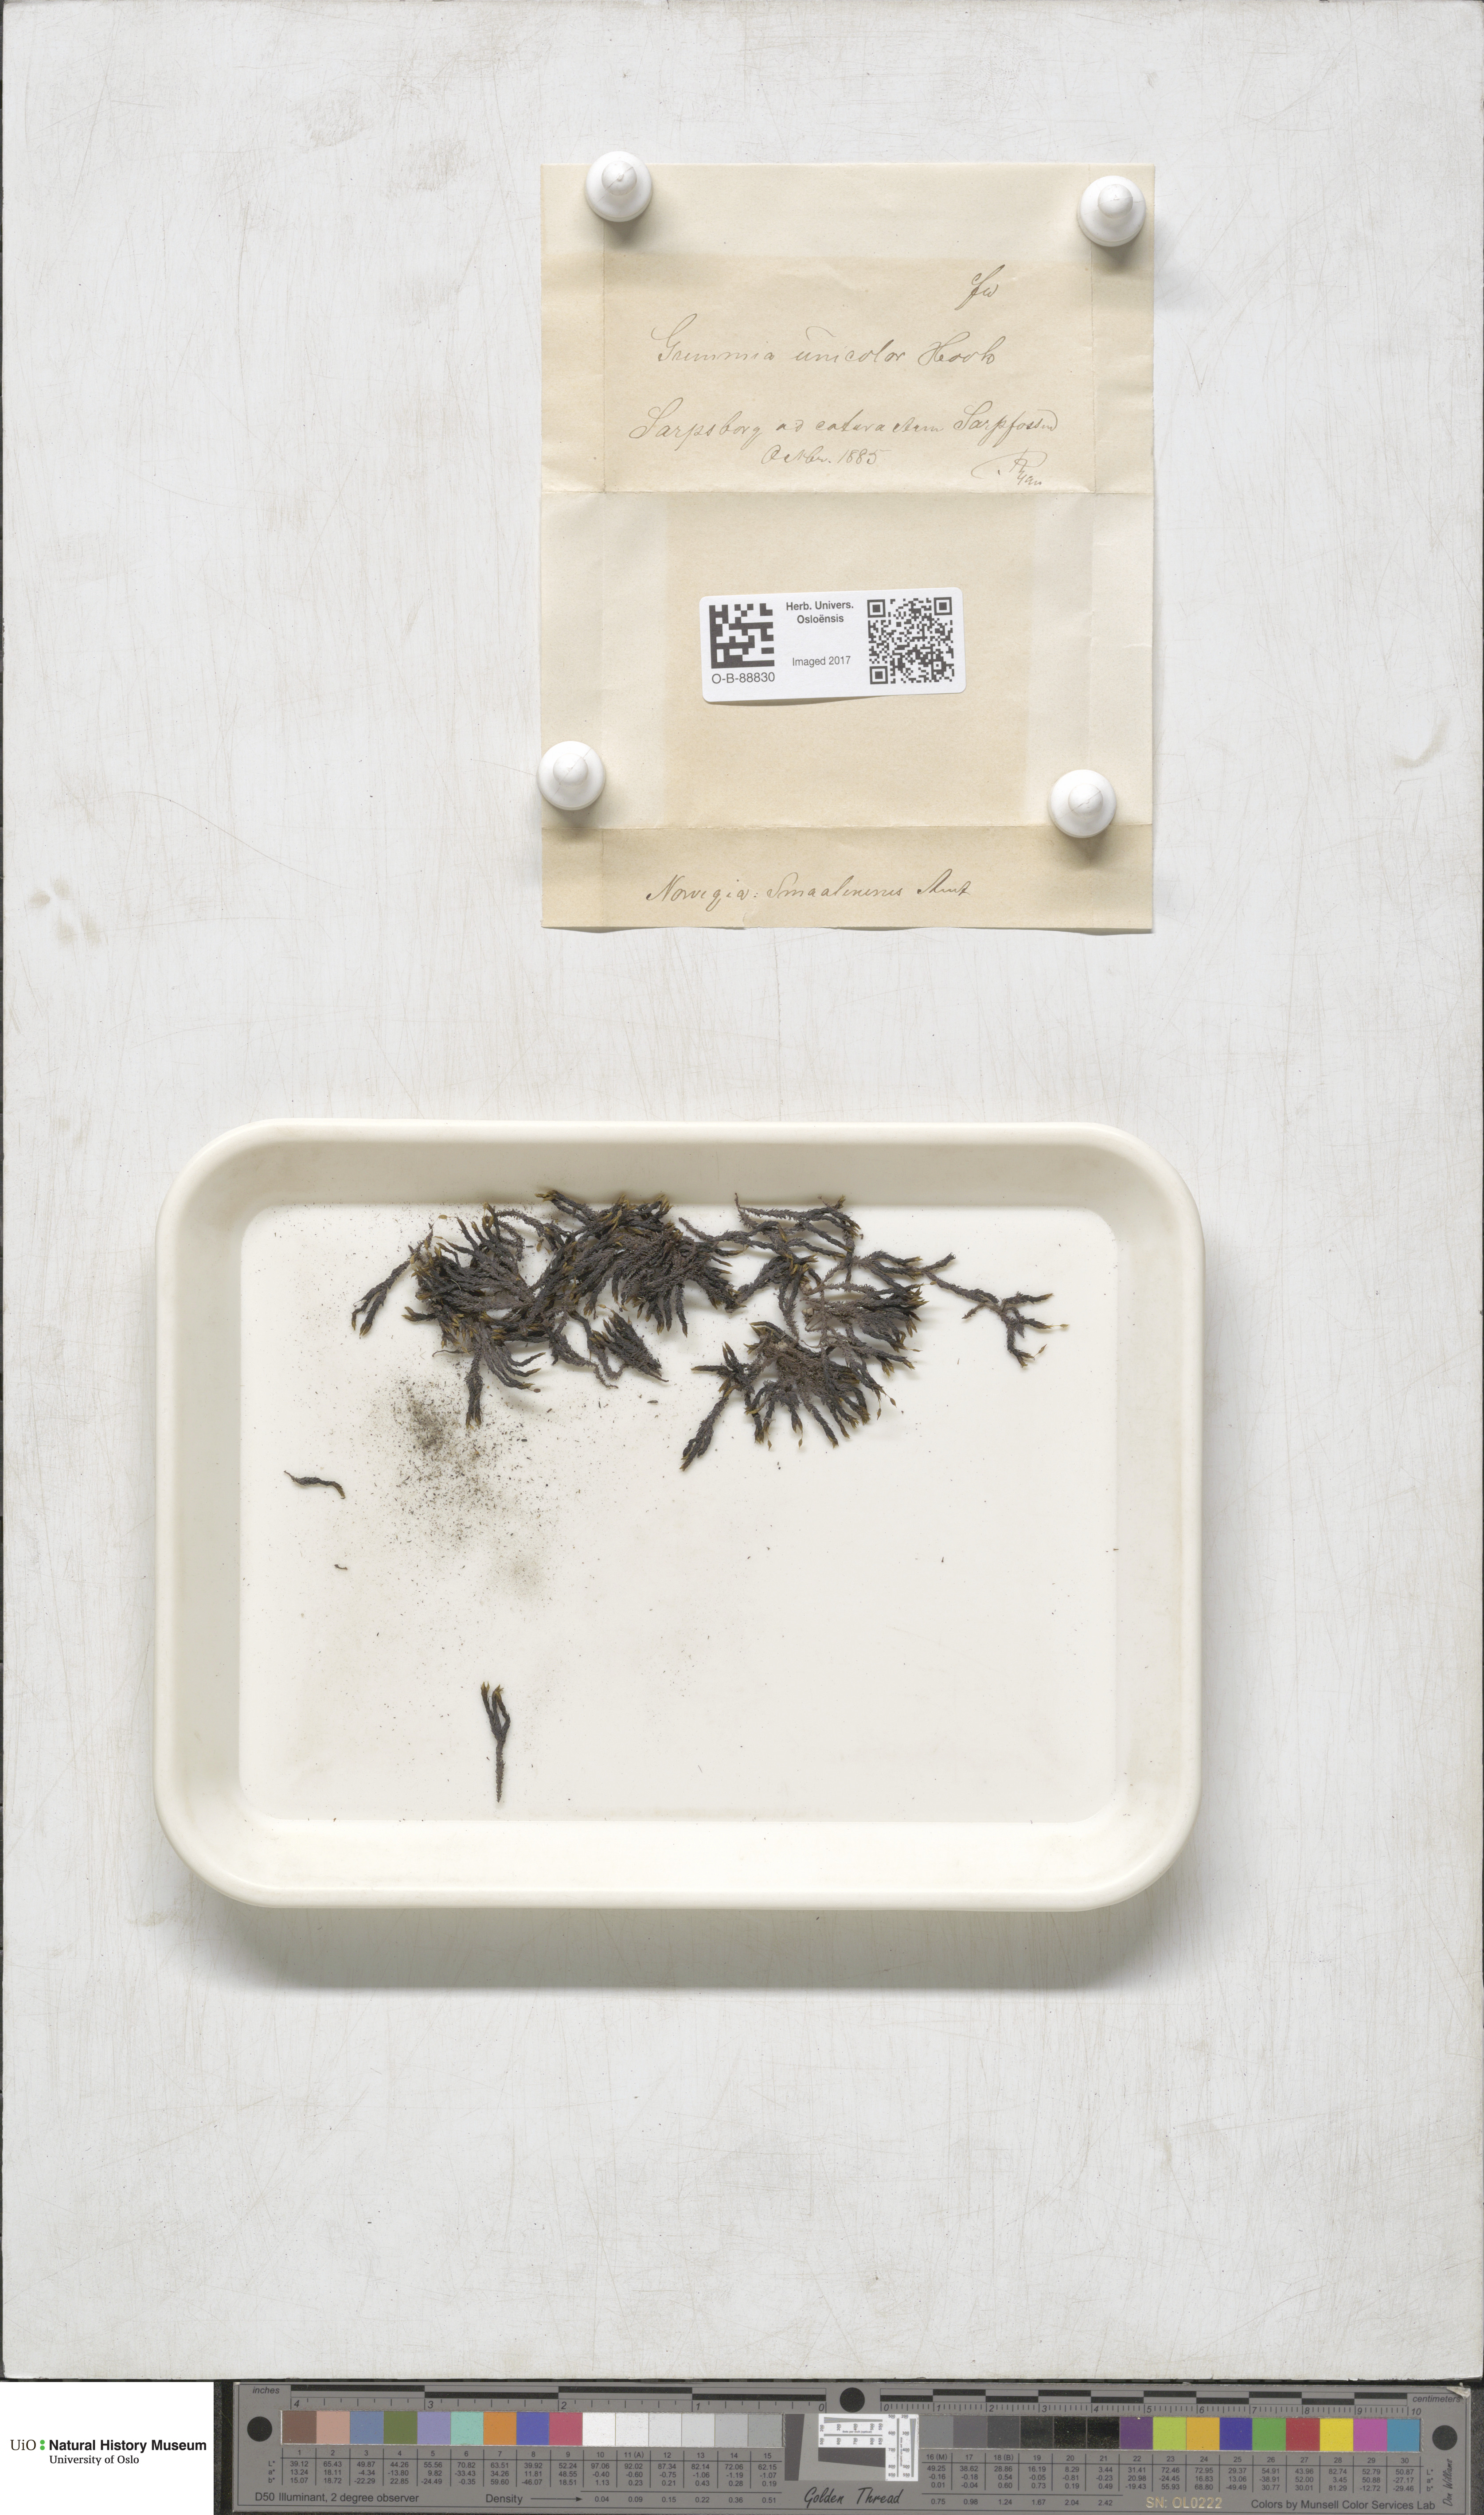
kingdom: Plantae
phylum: Bryophyta
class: Bryopsida
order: Grimmiales
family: Grimmiaceae
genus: Grimmia
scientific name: Grimmia unicolor
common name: Dingy grimmia
